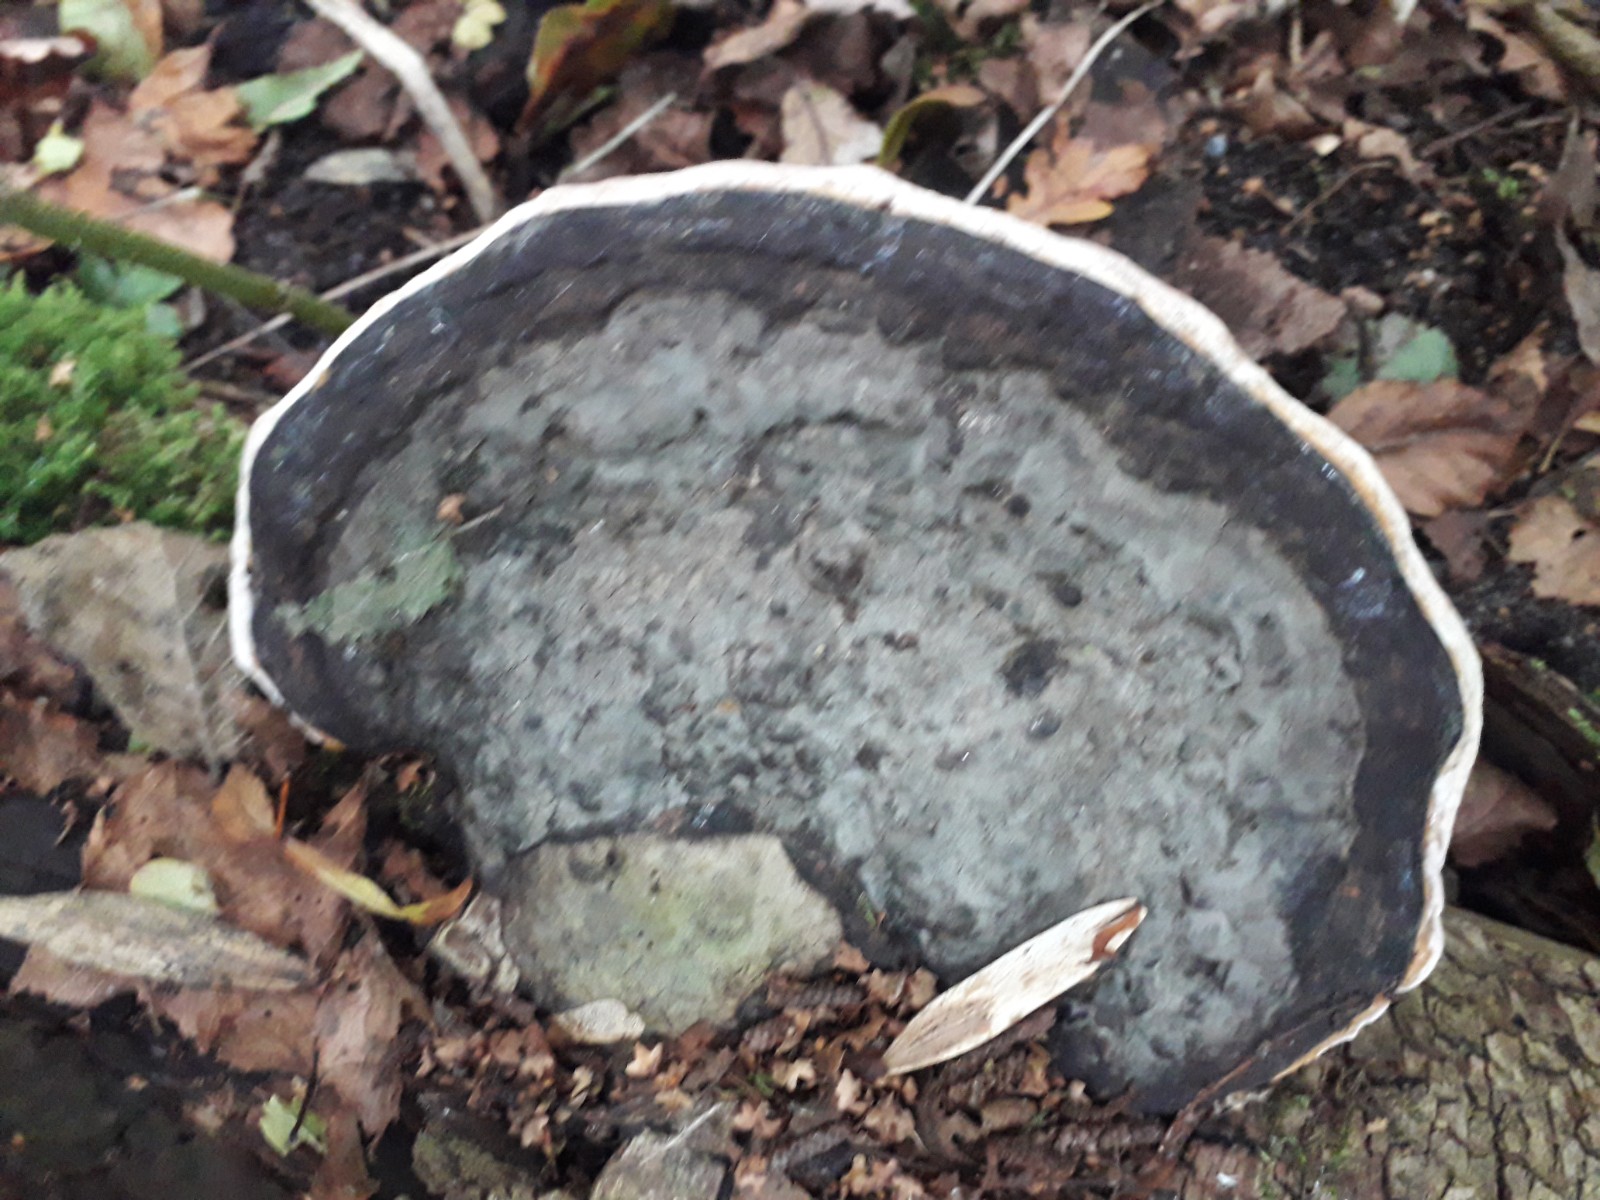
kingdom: Fungi
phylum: Basidiomycota
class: Agaricomycetes
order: Polyporales
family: Fomitopsidaceae
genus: Fomitopsis
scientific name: Fomitopsis pinicola
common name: randbæltet hovporesvamp
